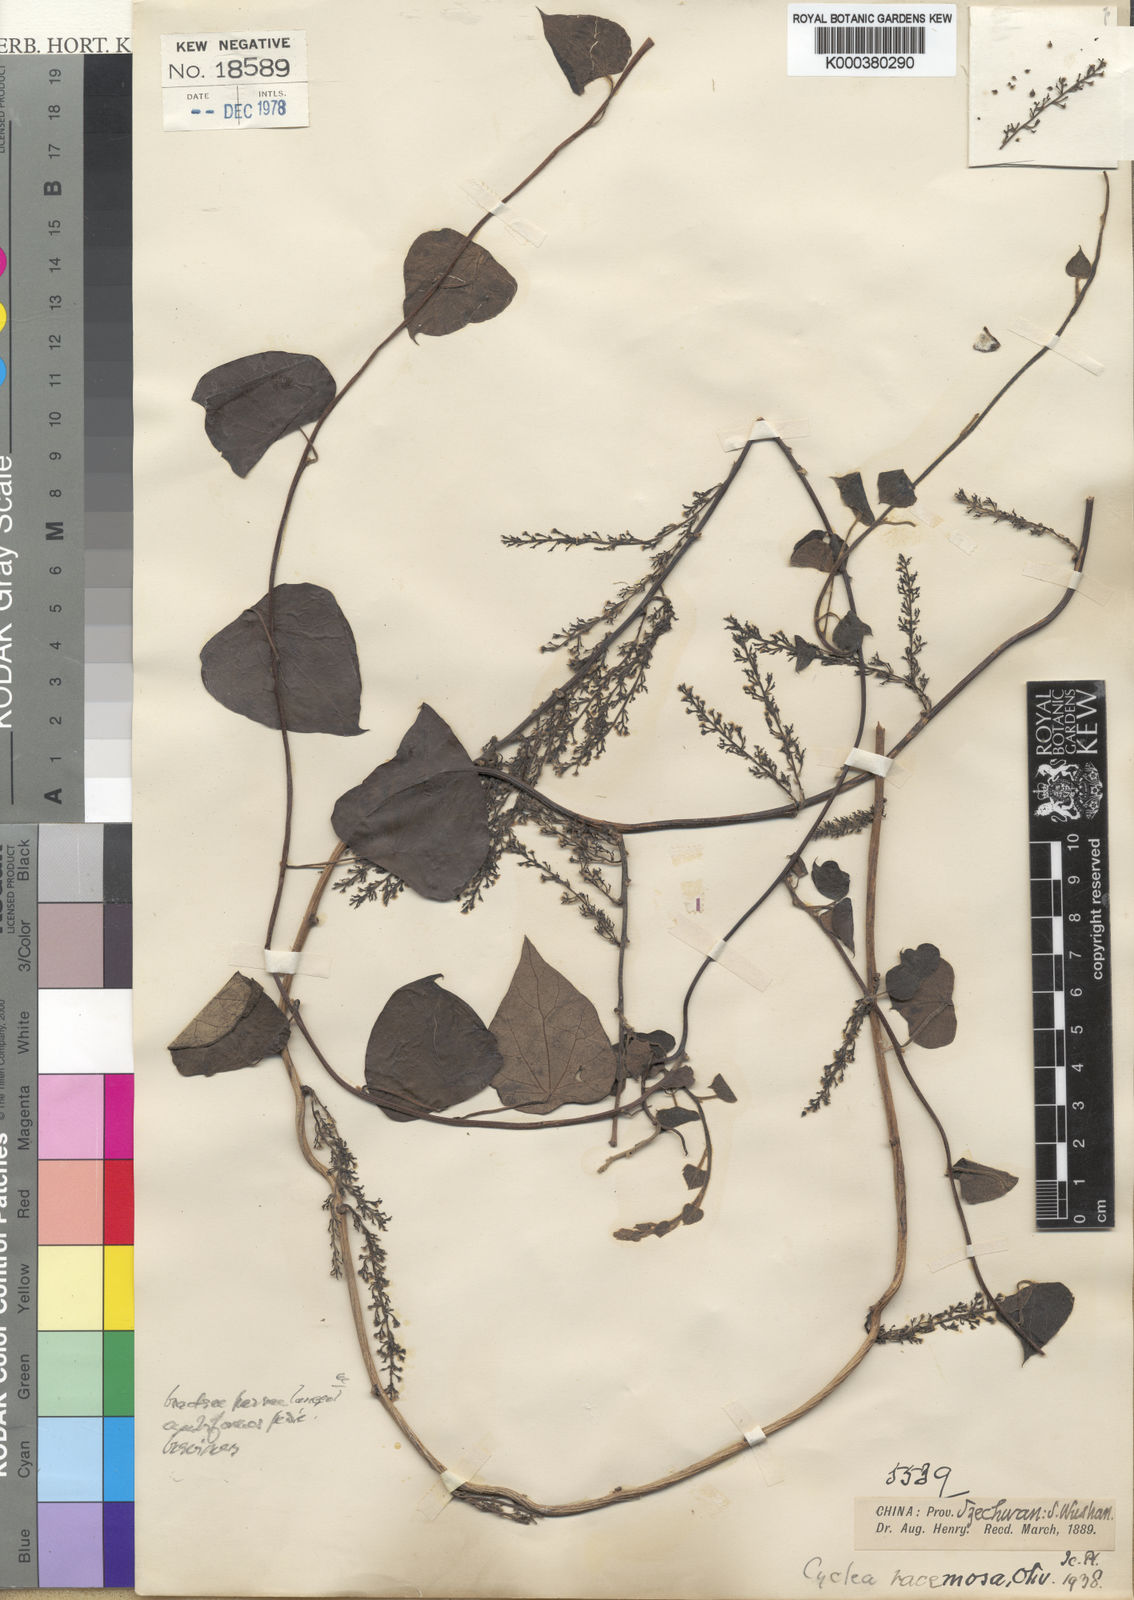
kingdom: Plantae
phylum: Tracheophyta
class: Magnoliopsida
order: Ranunculales
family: Menispermaceae
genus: Cyclea
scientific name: Cyclea racemosa
